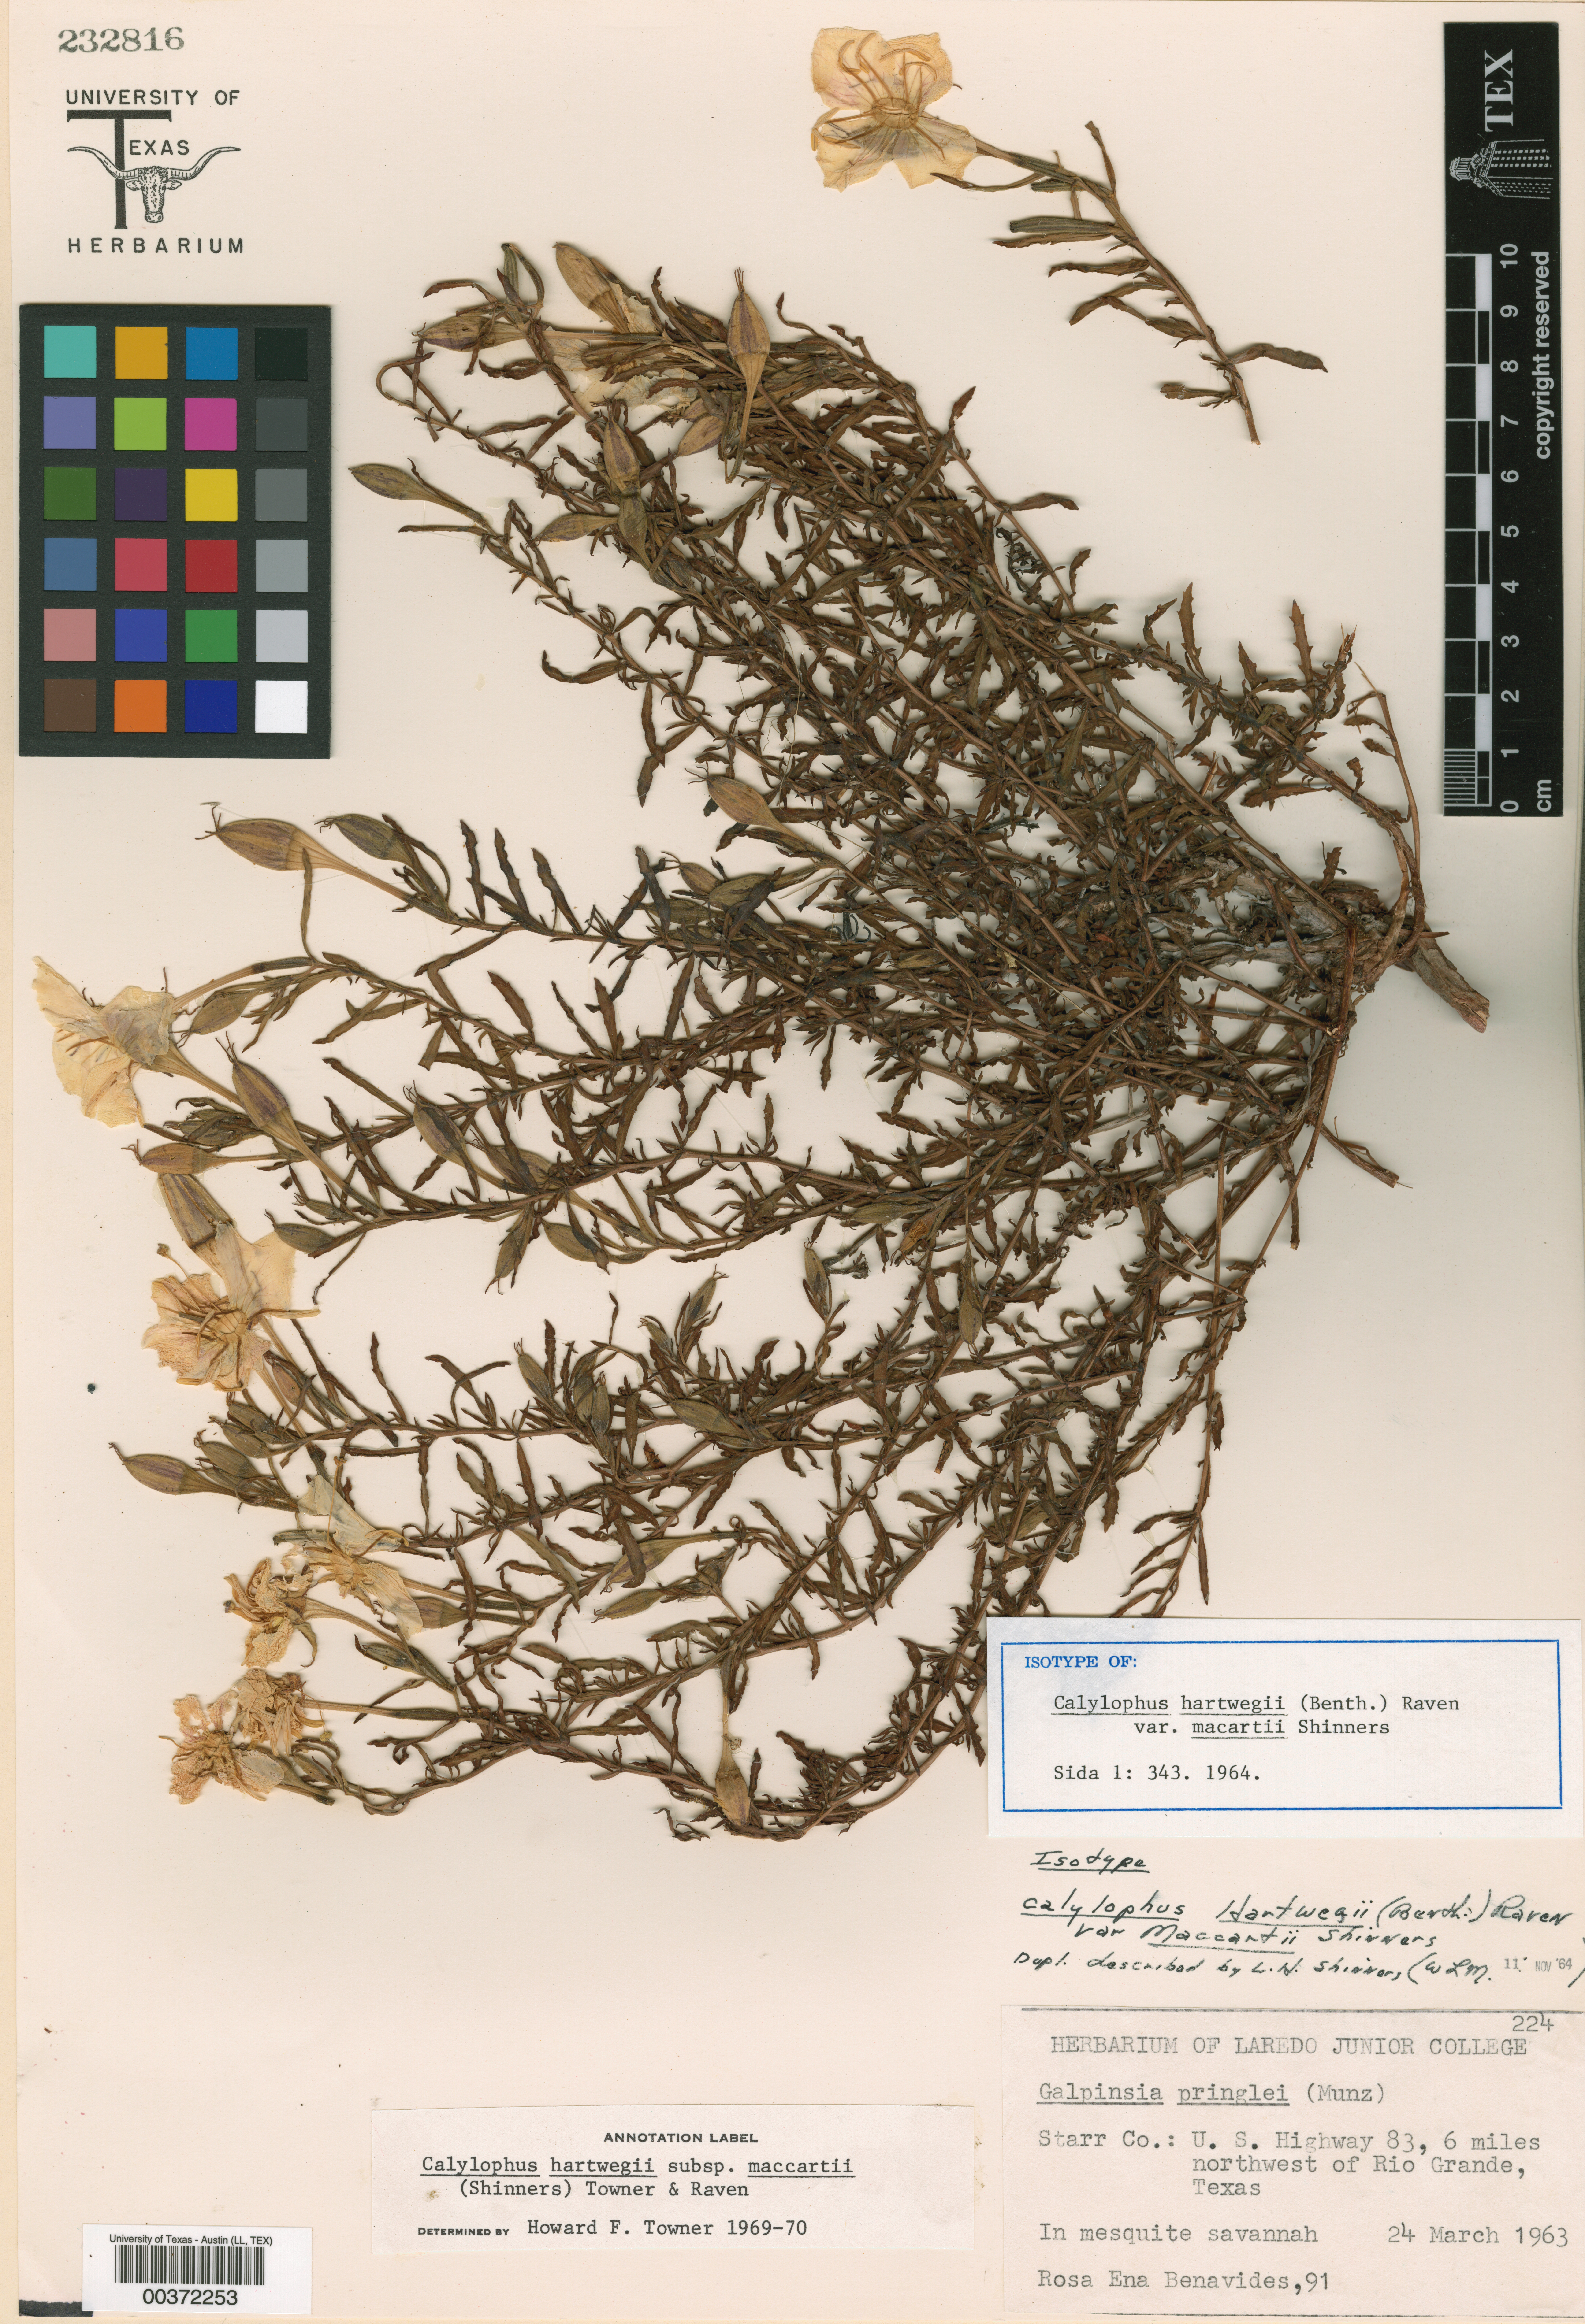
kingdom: Plantae
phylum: Tracheophyta
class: Magnoliopsida
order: Myrtales
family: Onagraceae
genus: Oenothera
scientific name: Oenothera hartwegii
